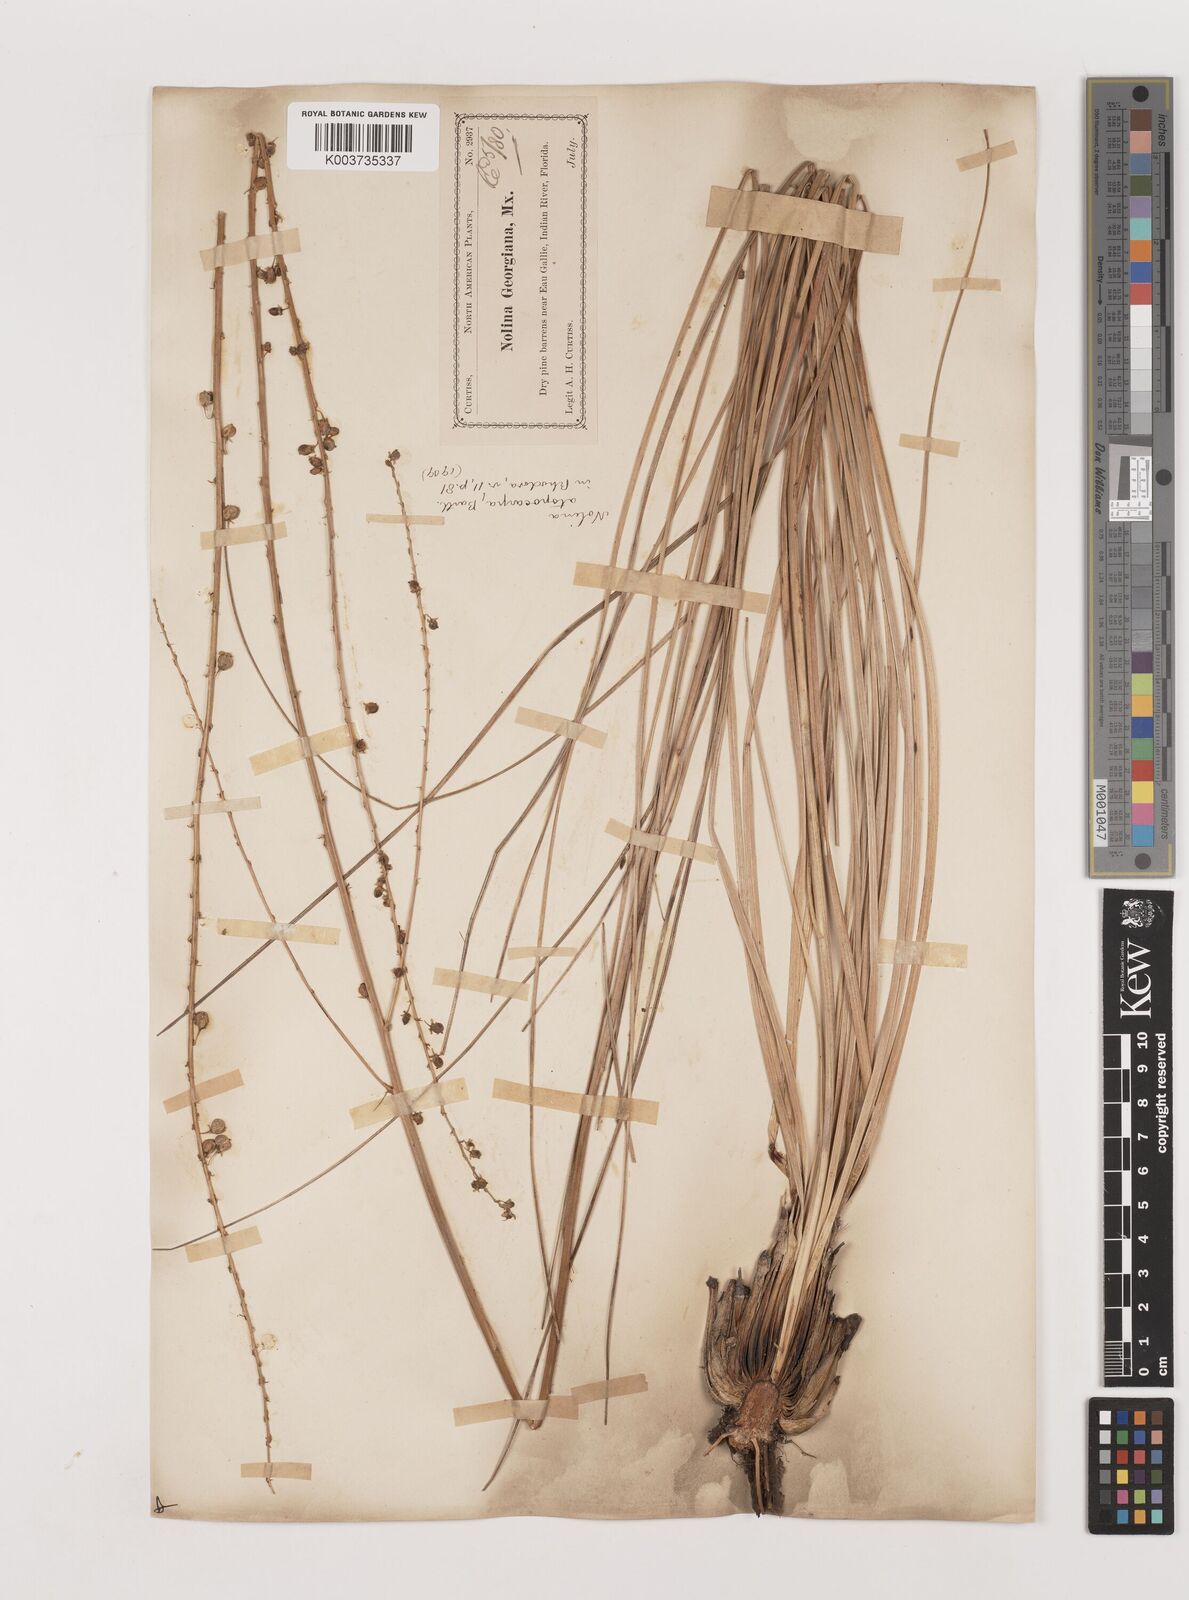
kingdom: Plantae
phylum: Tracheophyta
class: Liliopsida
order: Asparagales
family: Asparagaceae
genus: Nolina
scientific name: Nolina atopocarpa
